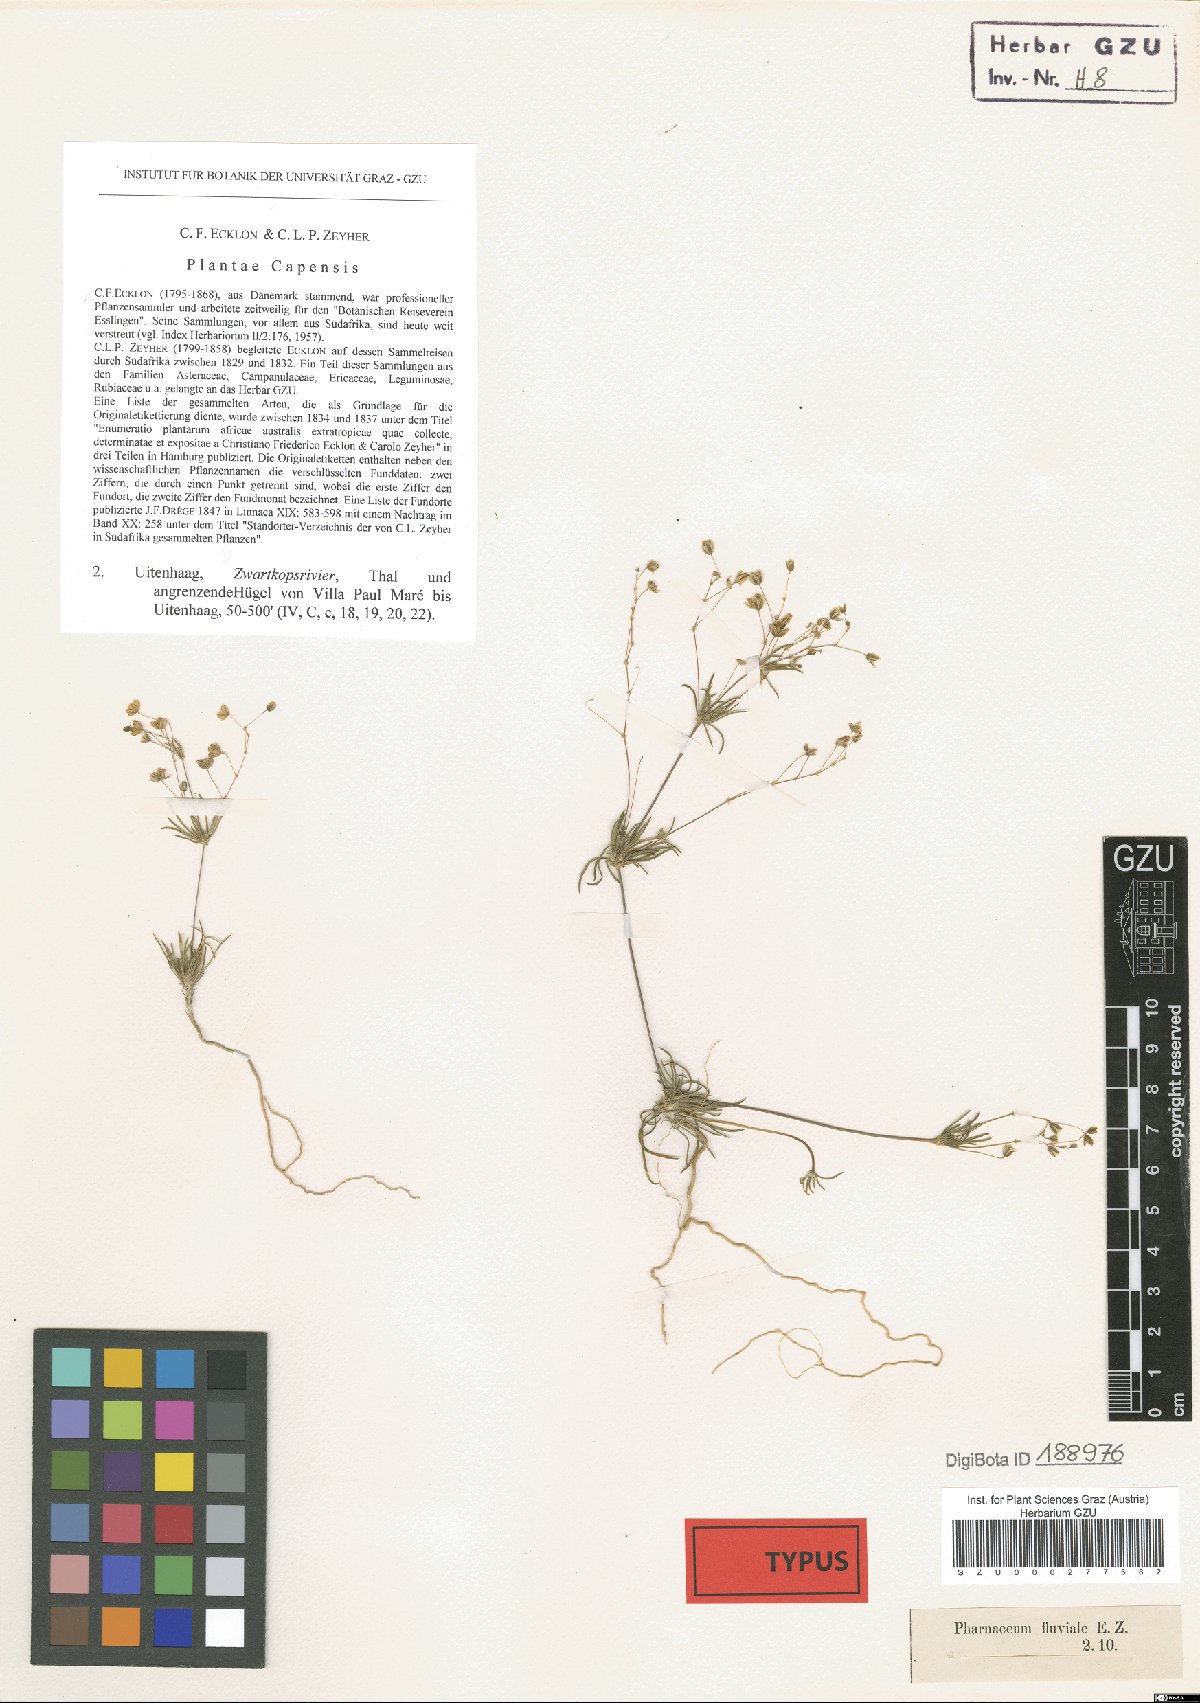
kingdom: Plantae
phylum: Tracheophyta
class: Magnoliopsida
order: Caryophyllales
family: Molluginaceae
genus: Pharnaceum
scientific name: Pharnaceum fluviale
